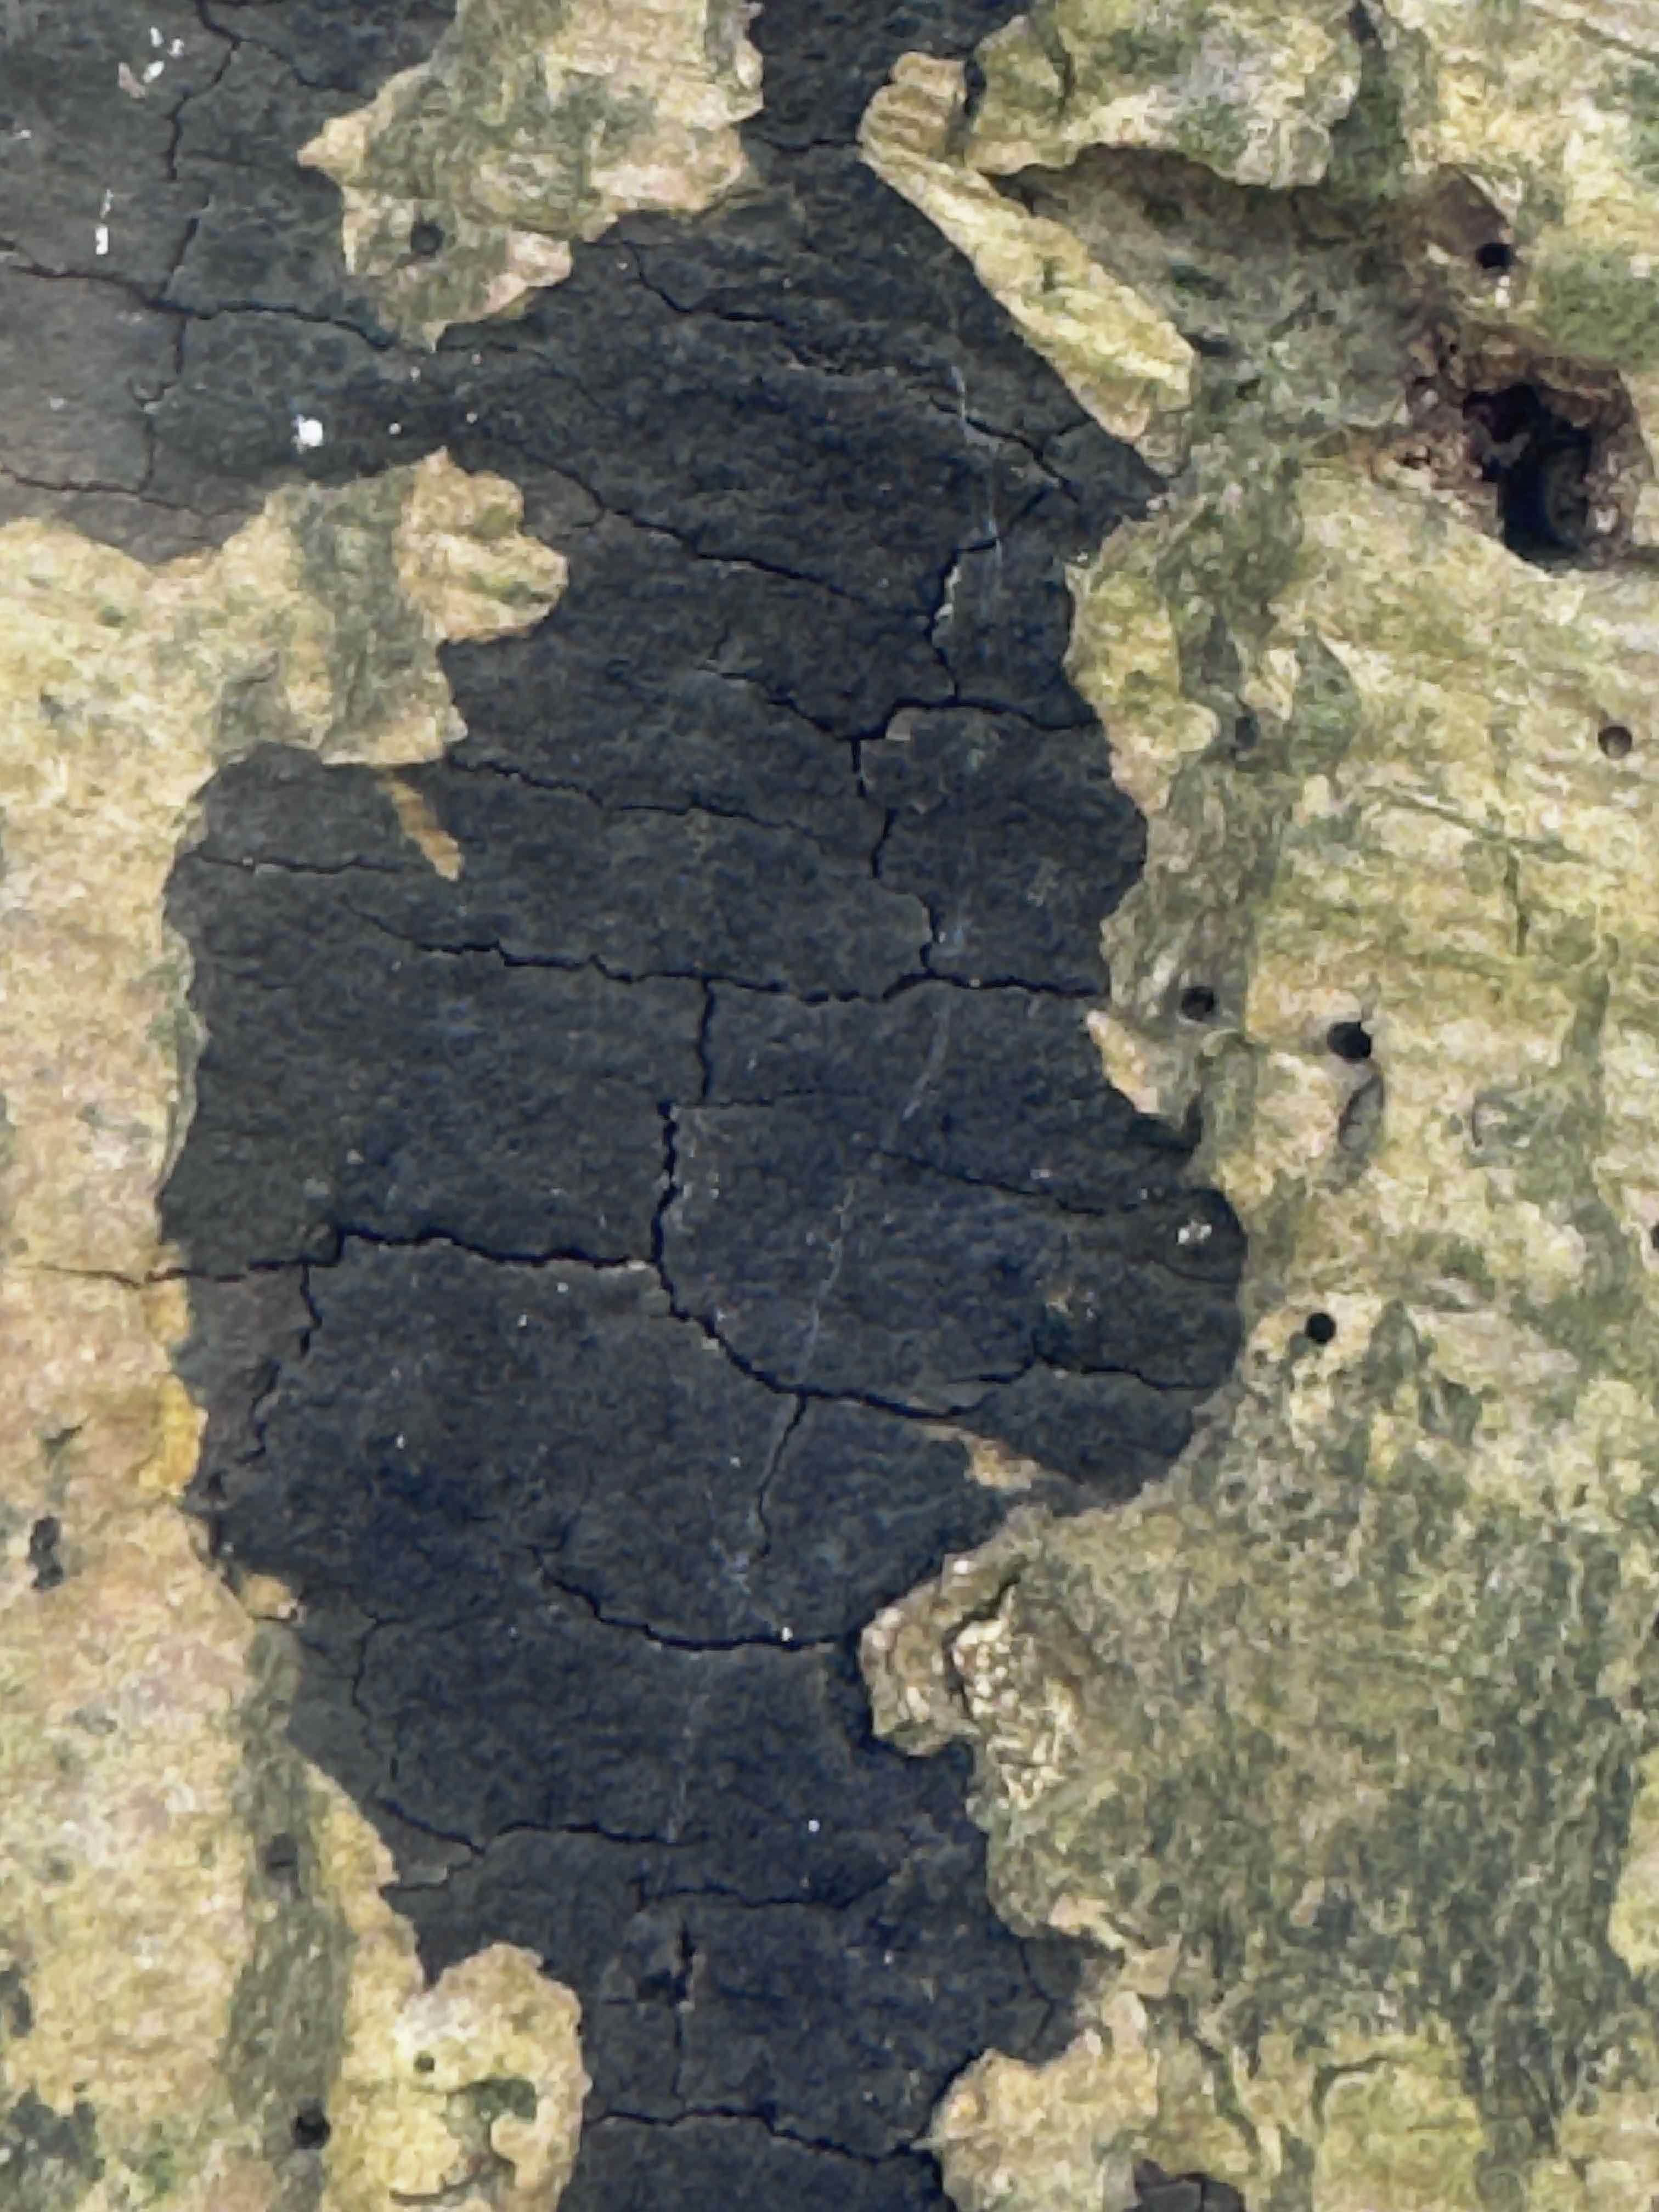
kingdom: Fungi
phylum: Ascomycota
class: Sordariomycetes
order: Xylariales
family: Diatrypaceae
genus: Eutypa
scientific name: Eutypa spinosa
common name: grov kulskorpe
